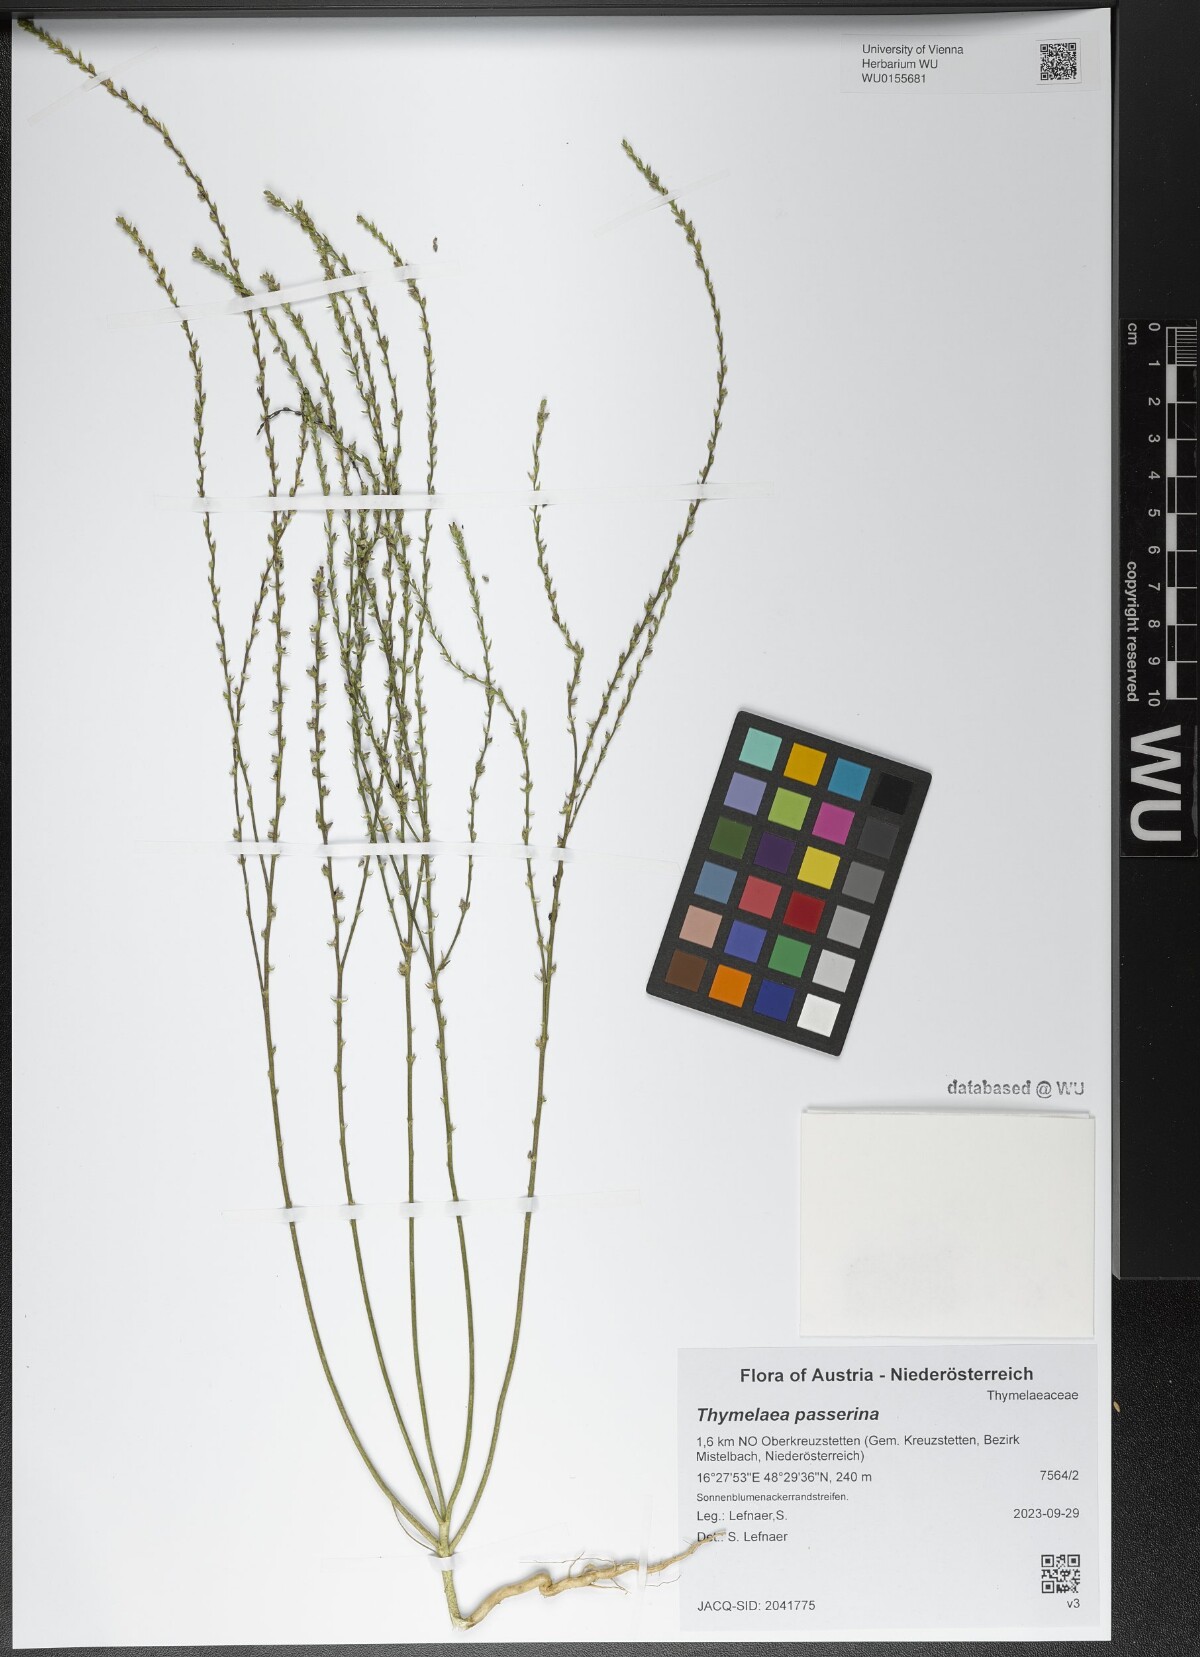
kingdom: Plantae
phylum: Tracheophyta
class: Magnoliopsida
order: Malvales
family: Thymelaeaceae
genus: Thymelaea
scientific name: Thymelaea passerina
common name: Annual thymelaea
